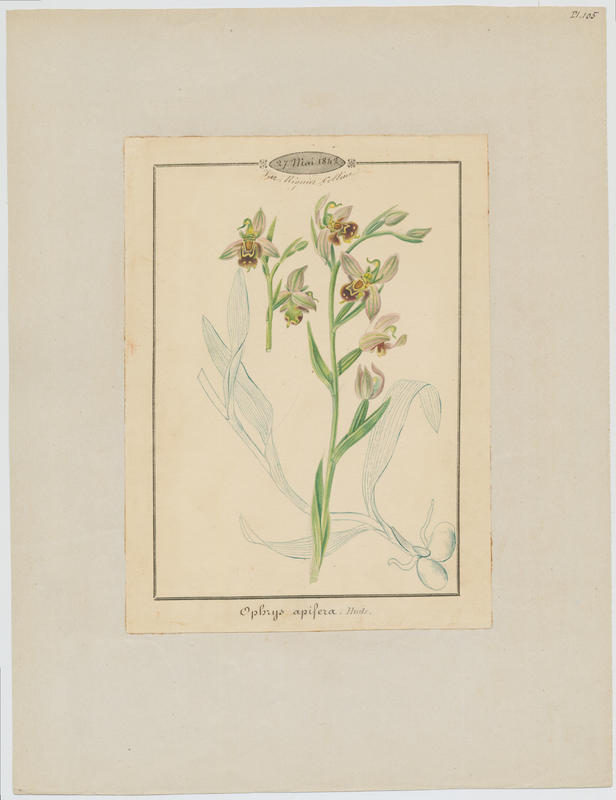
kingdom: Plantae
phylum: Tracheophyta
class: Liliopsida
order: Asparagales
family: Orchidaceae
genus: Ophrys
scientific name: Ophrys apifera
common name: Bee orchid
